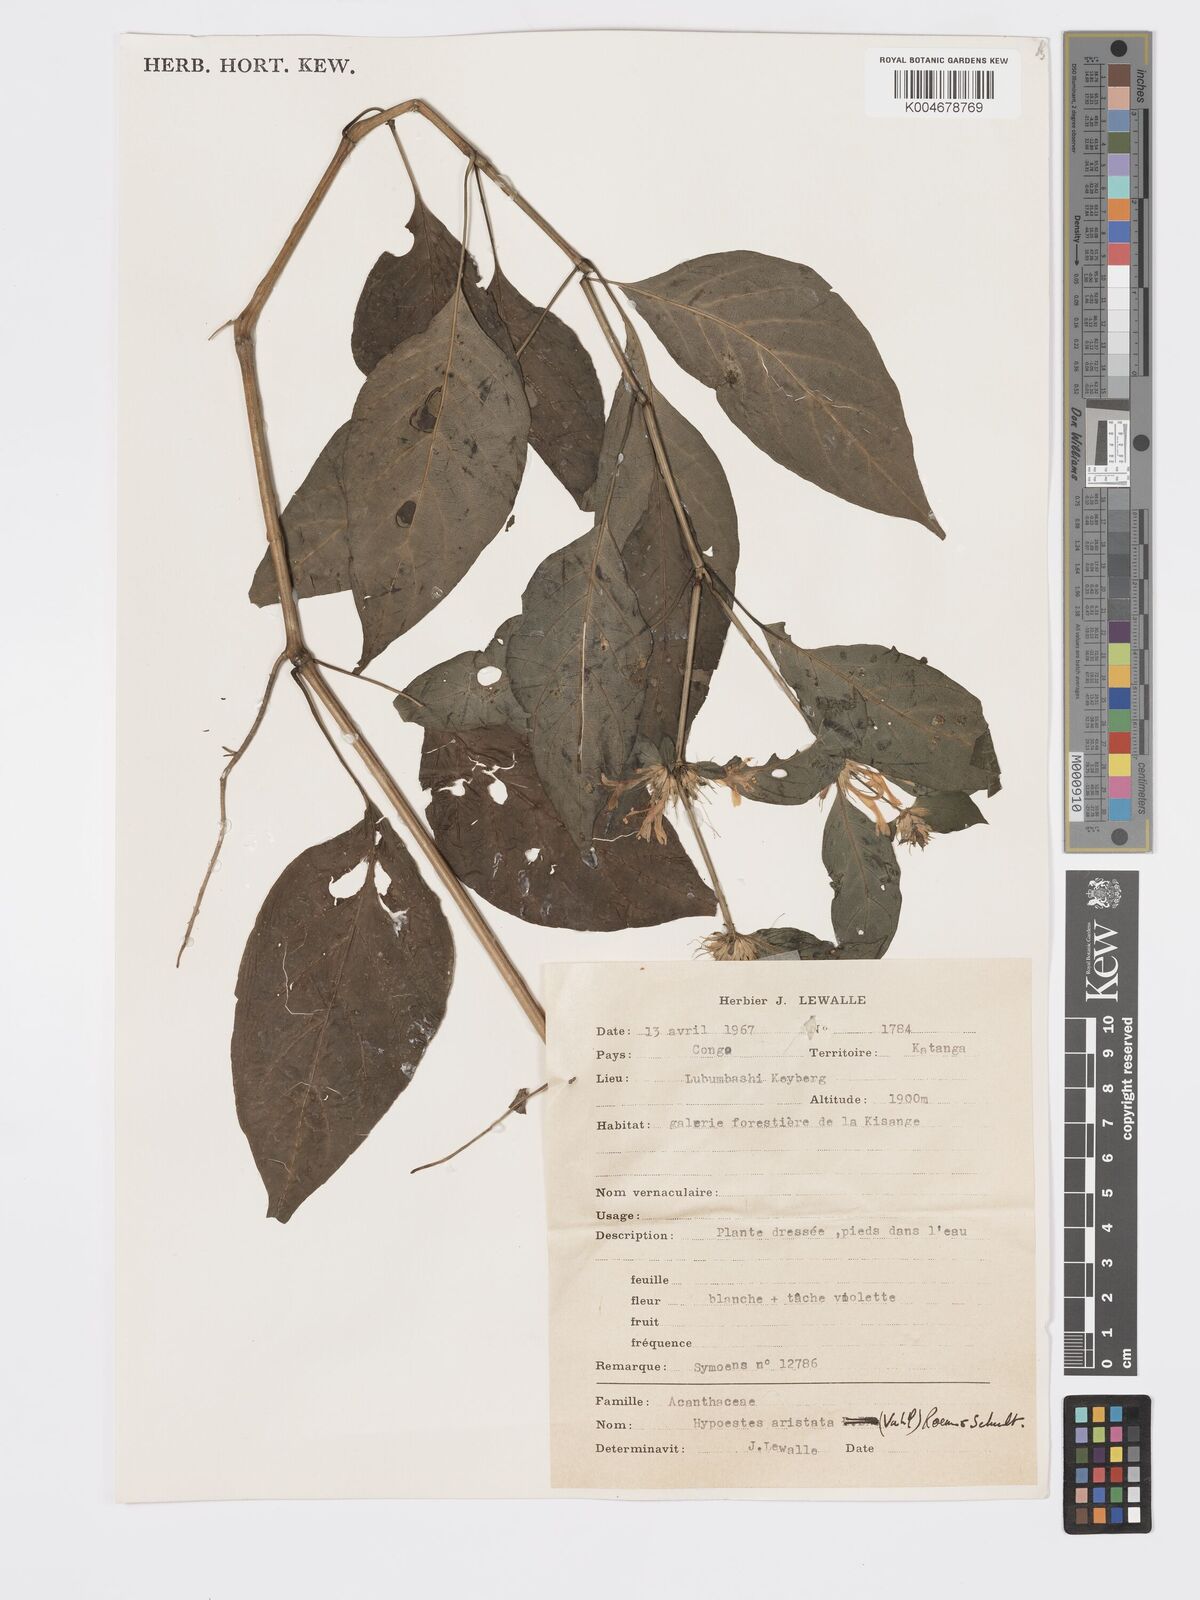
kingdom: Plantae
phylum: Tracheophyta
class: Magnoliopsida
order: Lamiales
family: Acanthaceae
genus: Hypoestes
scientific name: Hypoestes aristata
